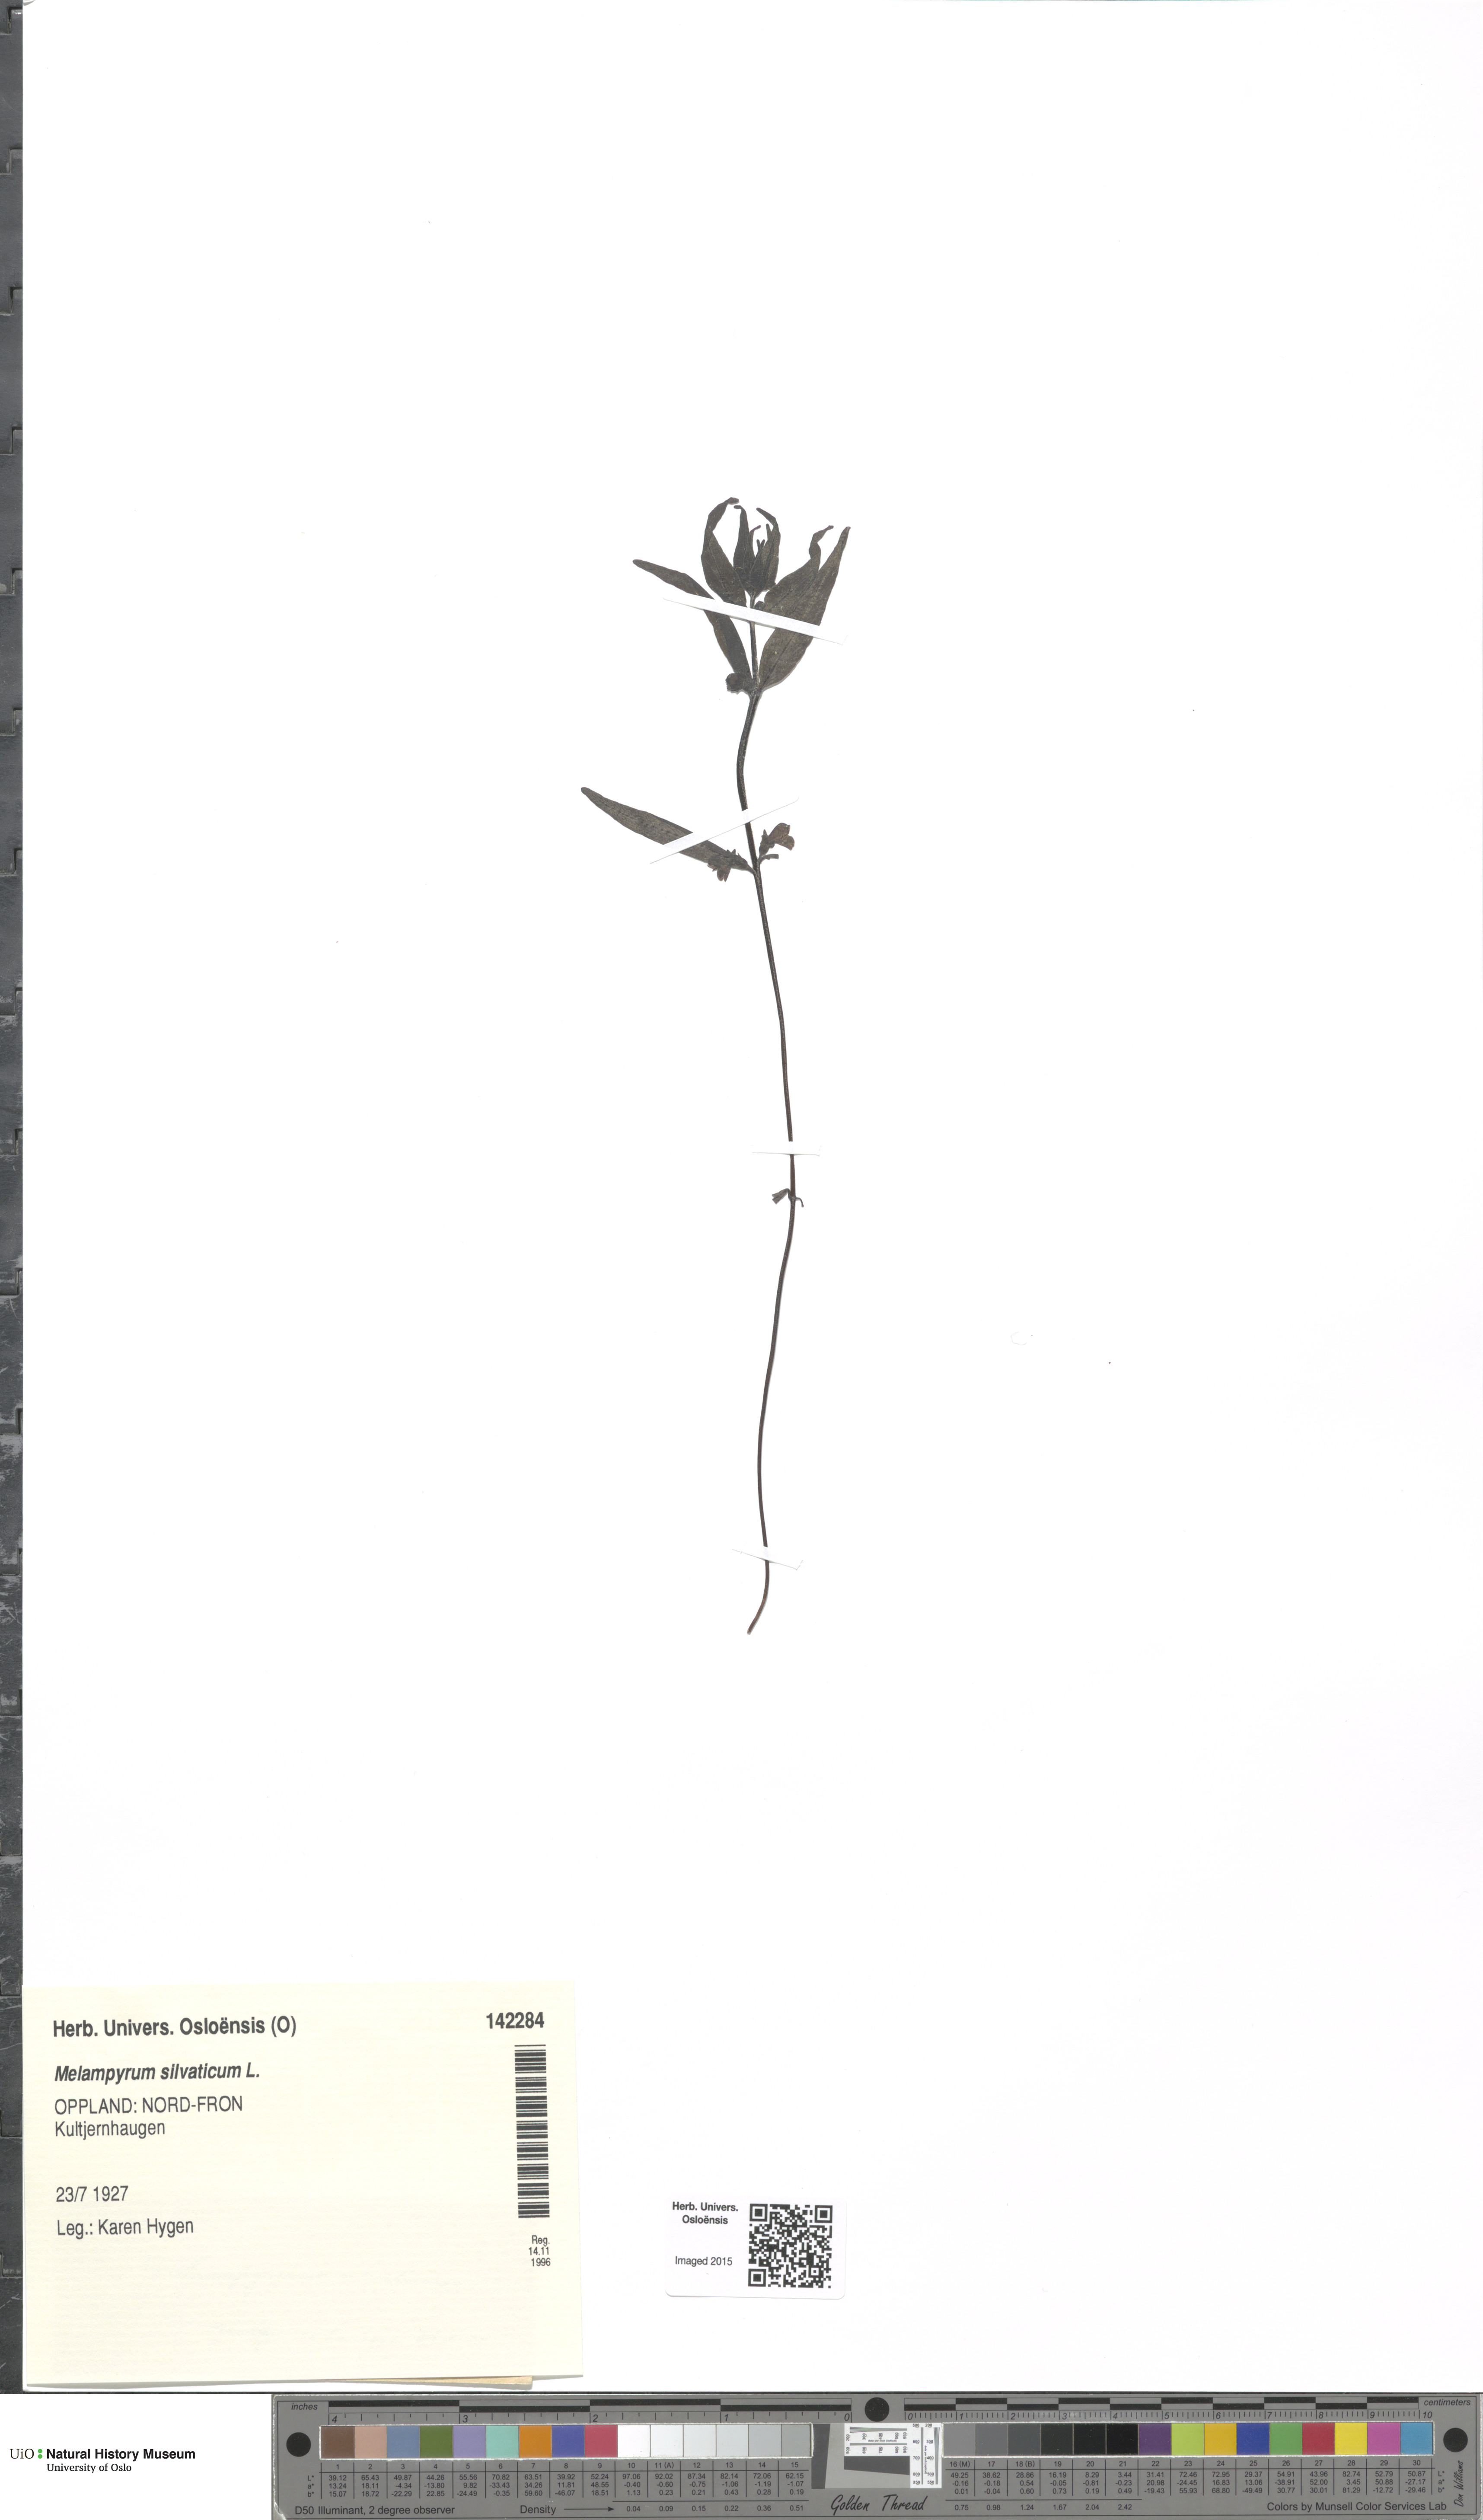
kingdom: Plantae
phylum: Tracheophyta
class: Magnoliopsida
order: Lamiales
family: Orobanchaceae
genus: Melampyrum
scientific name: Melampyrum sylvaticum
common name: Small cow-wheat
